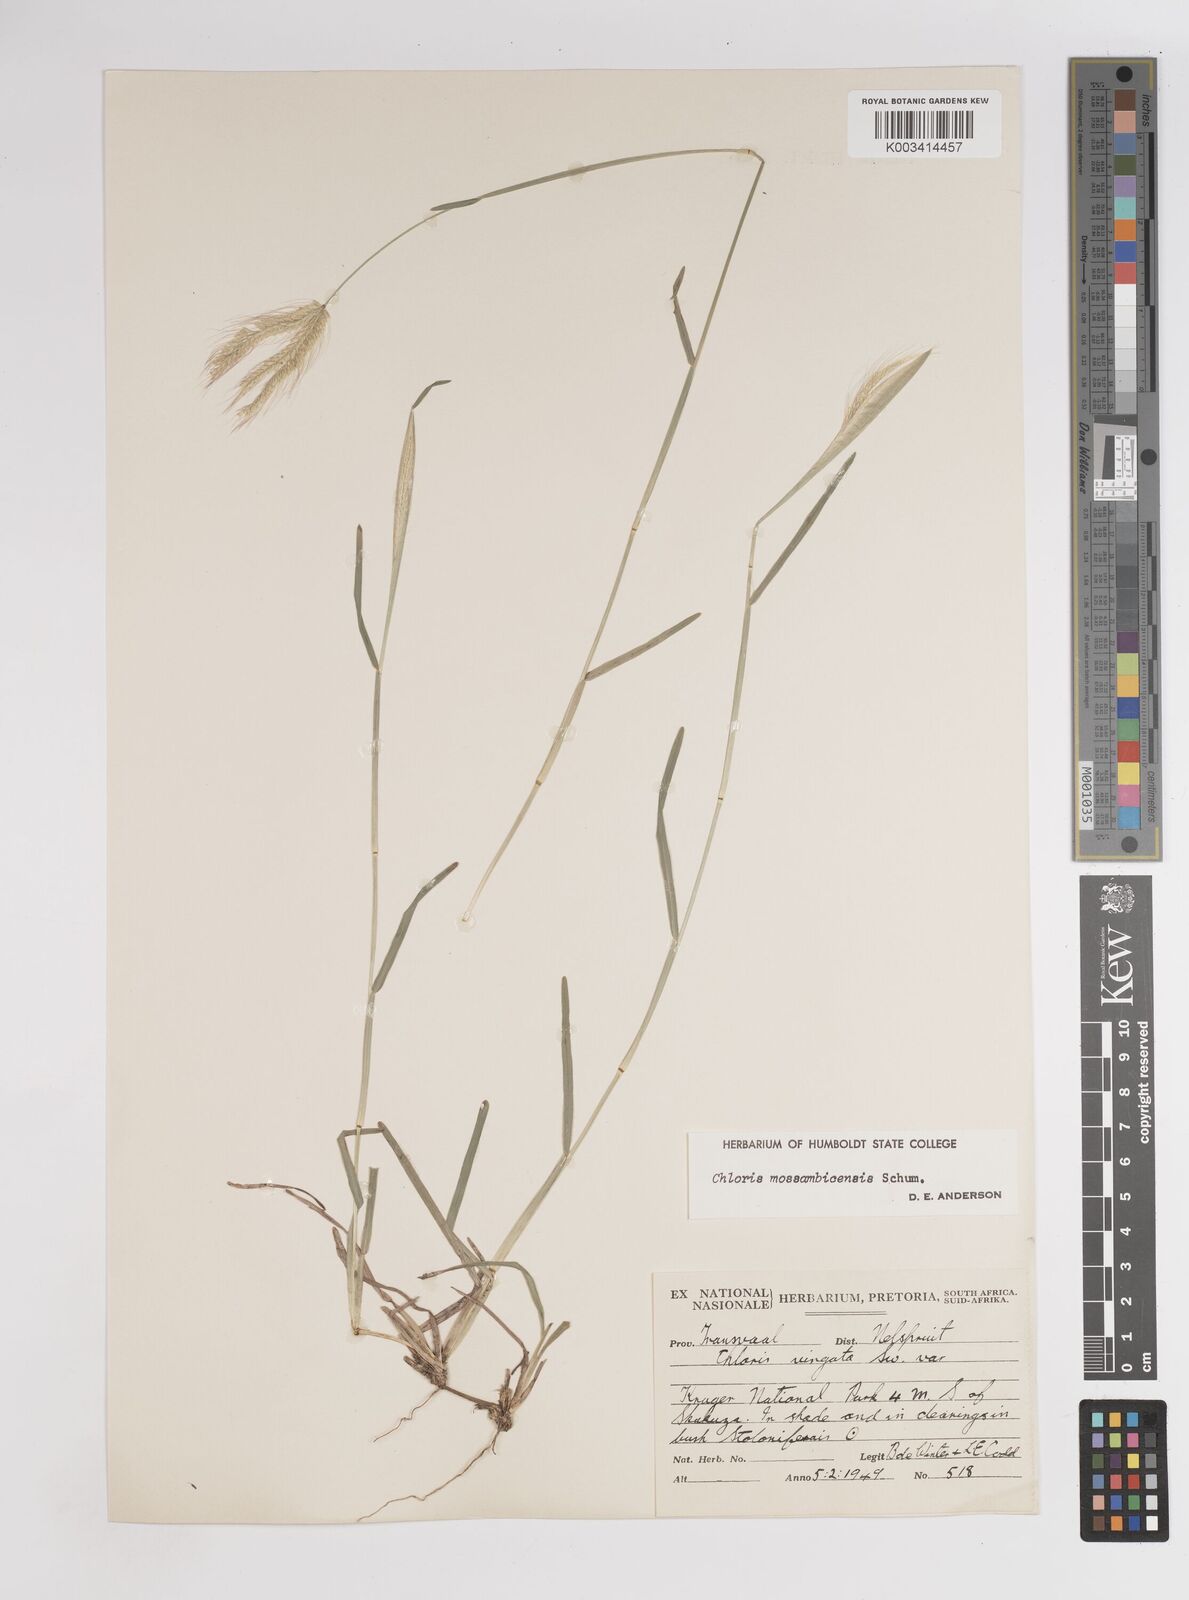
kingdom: Plantae
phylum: Tracheophyta
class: Liliopsida
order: Poales
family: Poaceae
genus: Chloris
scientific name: Chloris mossambicensis
